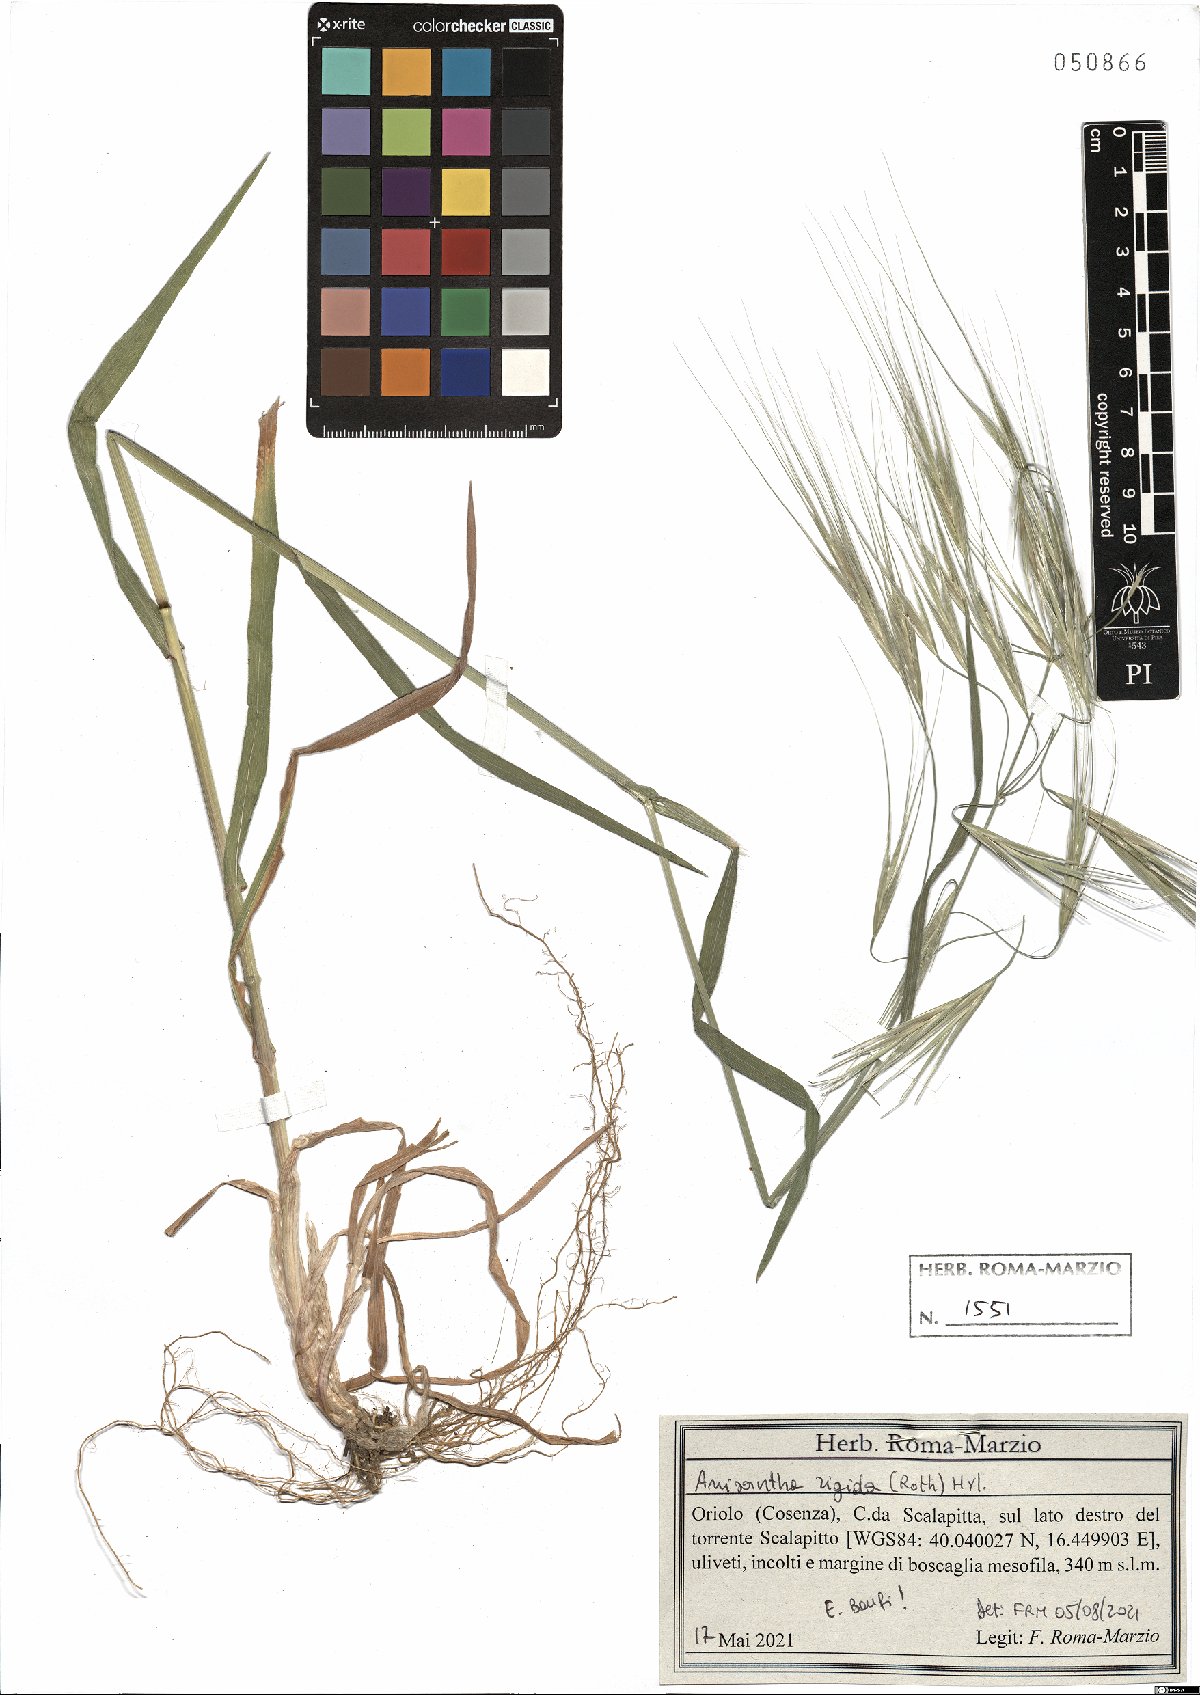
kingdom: Plantae
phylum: Tracheophyta
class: Liliopsida
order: Poales
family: Poaceae
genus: Bromus
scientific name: Bromus rigidus
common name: Ripgut brome
